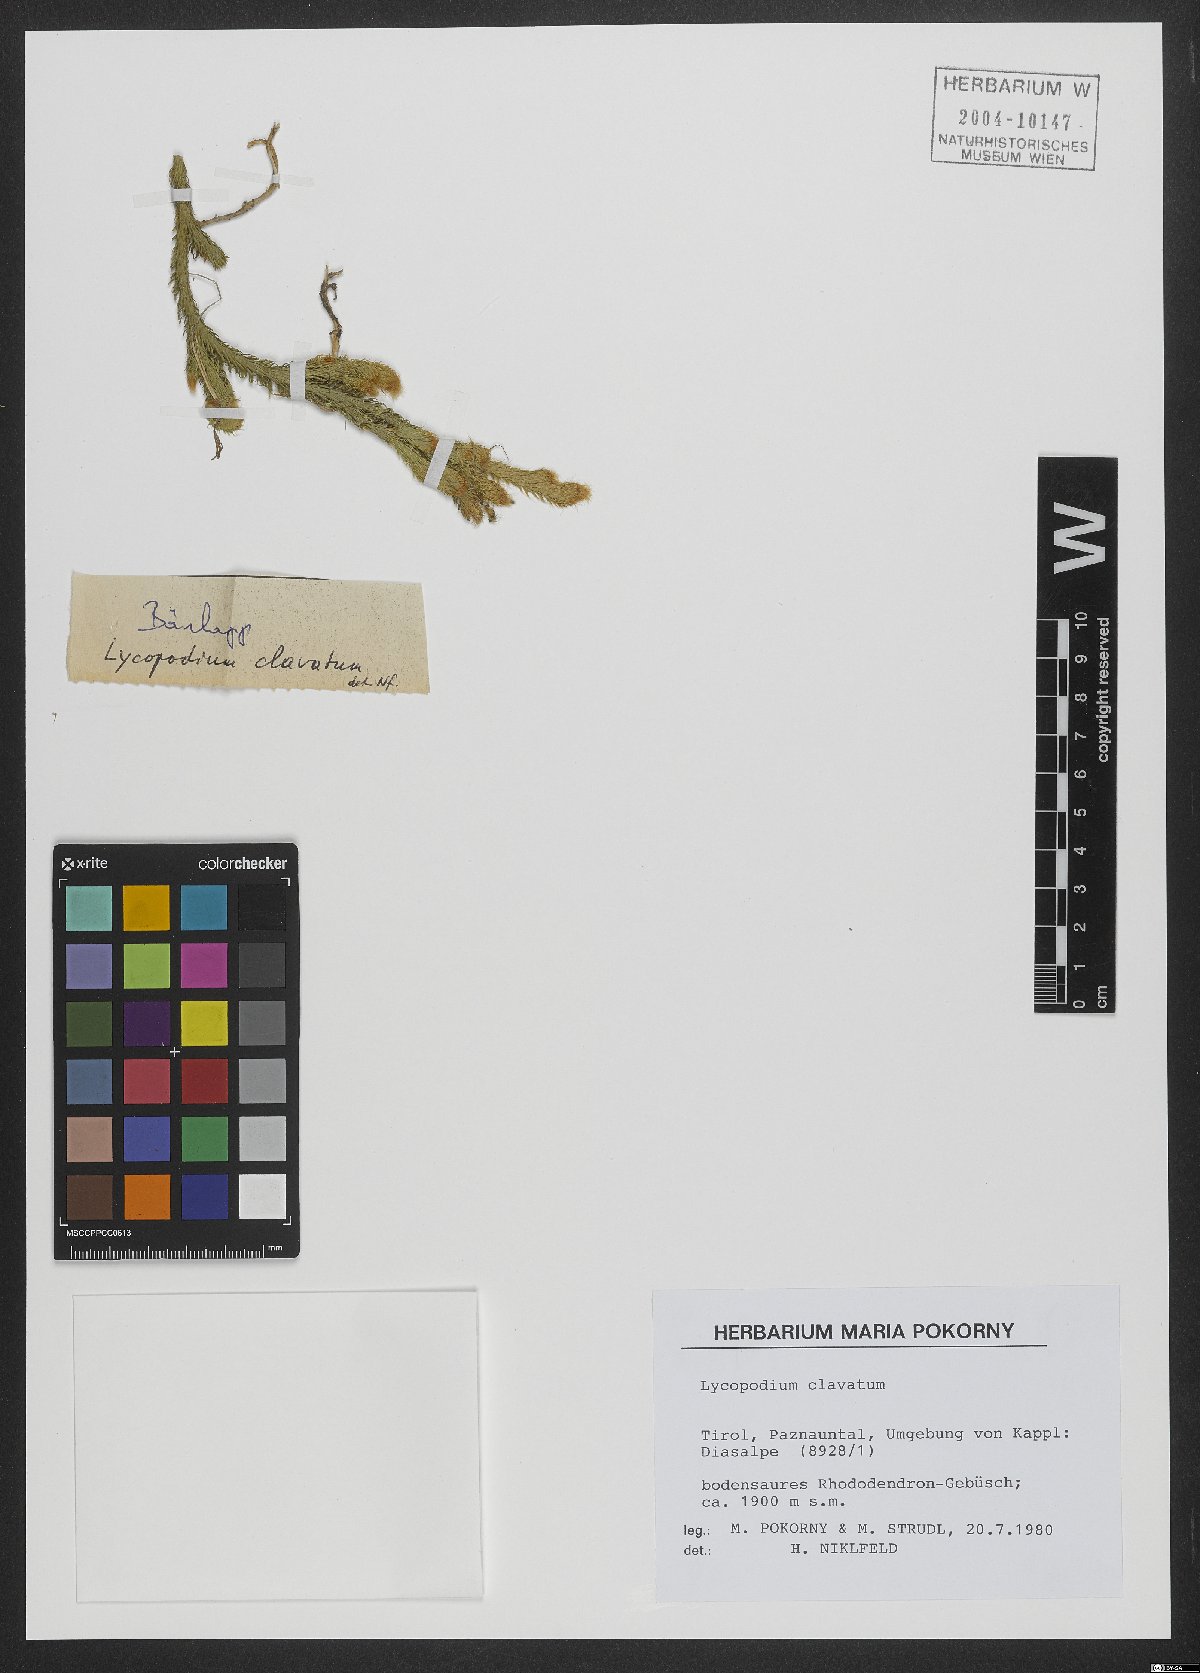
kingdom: Plantae
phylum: Tracheophyta
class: Lycopodiopsida
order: Lycopodiales
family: Lycopodiaceae
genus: Lycopodium
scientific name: Lycopodium clavatum
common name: Stag's-horn clubmoss
